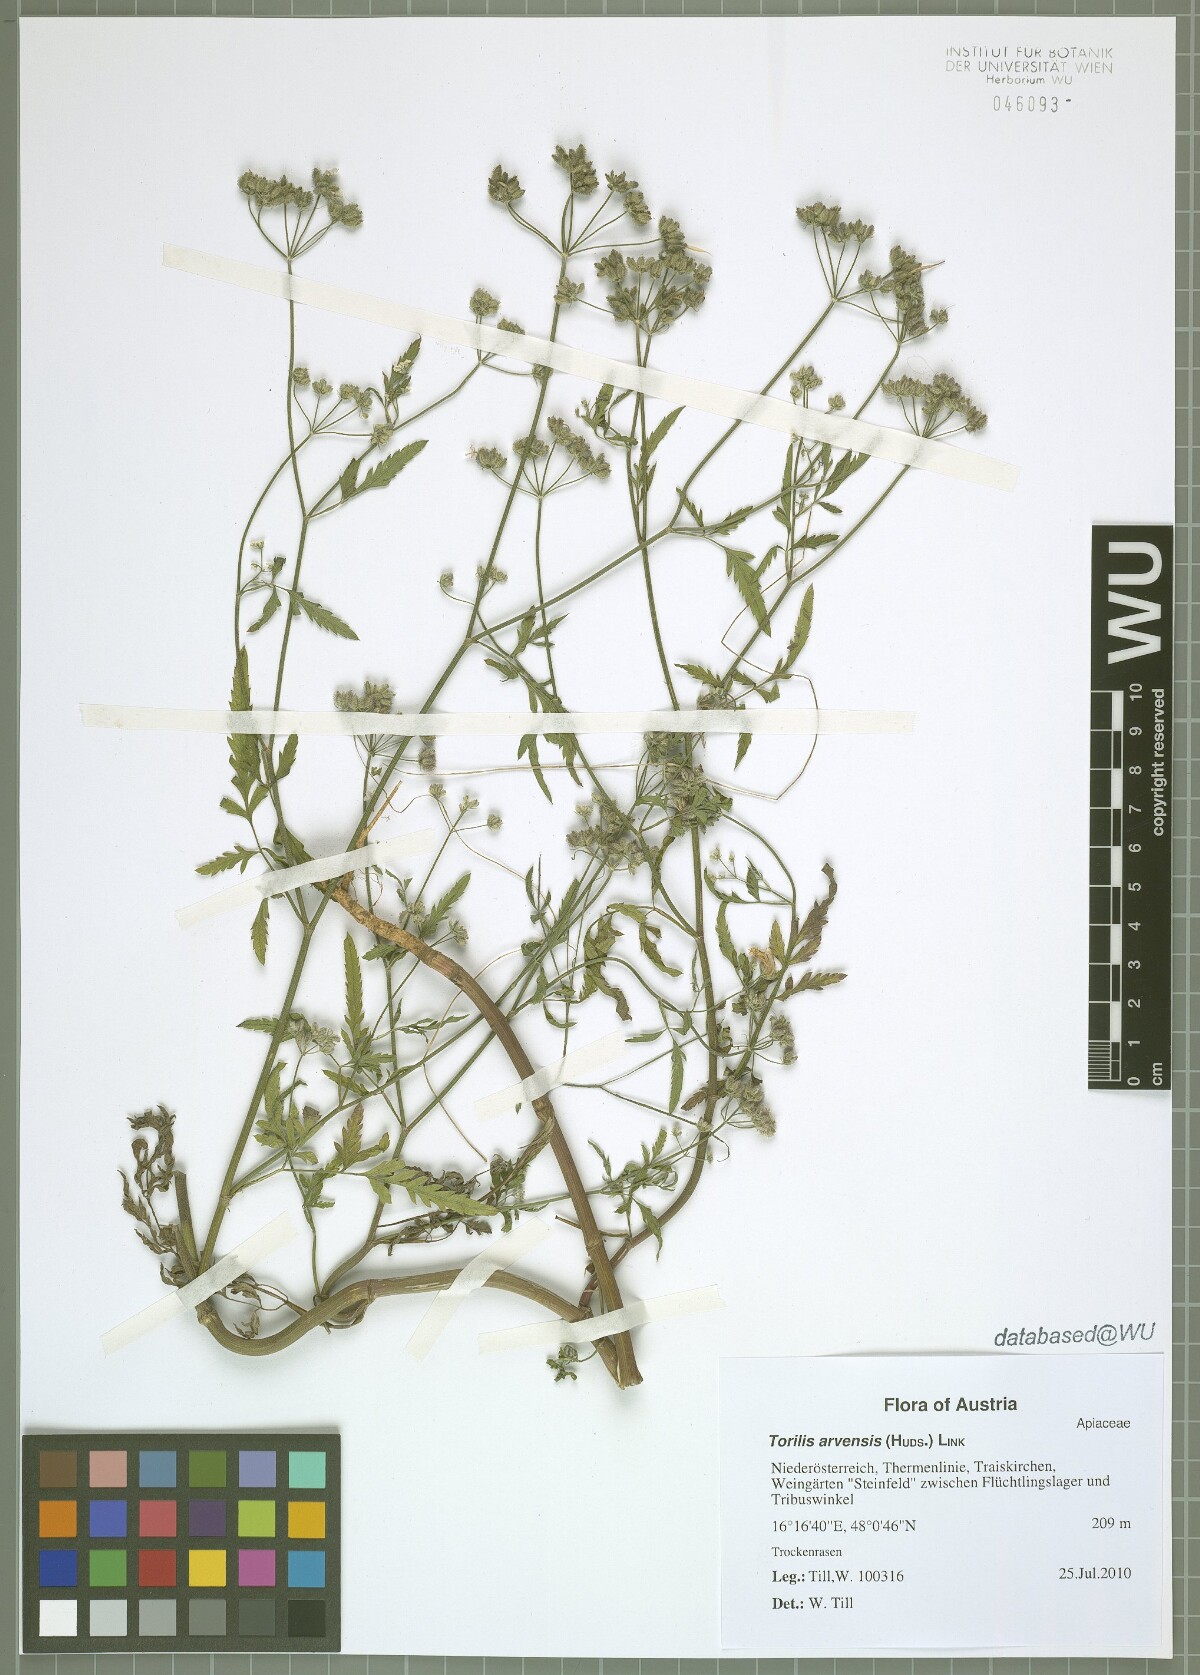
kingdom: Plantae
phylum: Tracheophyta
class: Magnoliopsida
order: Apiales
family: Apiaceae
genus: Torilis
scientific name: Torilis arvensis
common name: Spreading hedge-parsley
